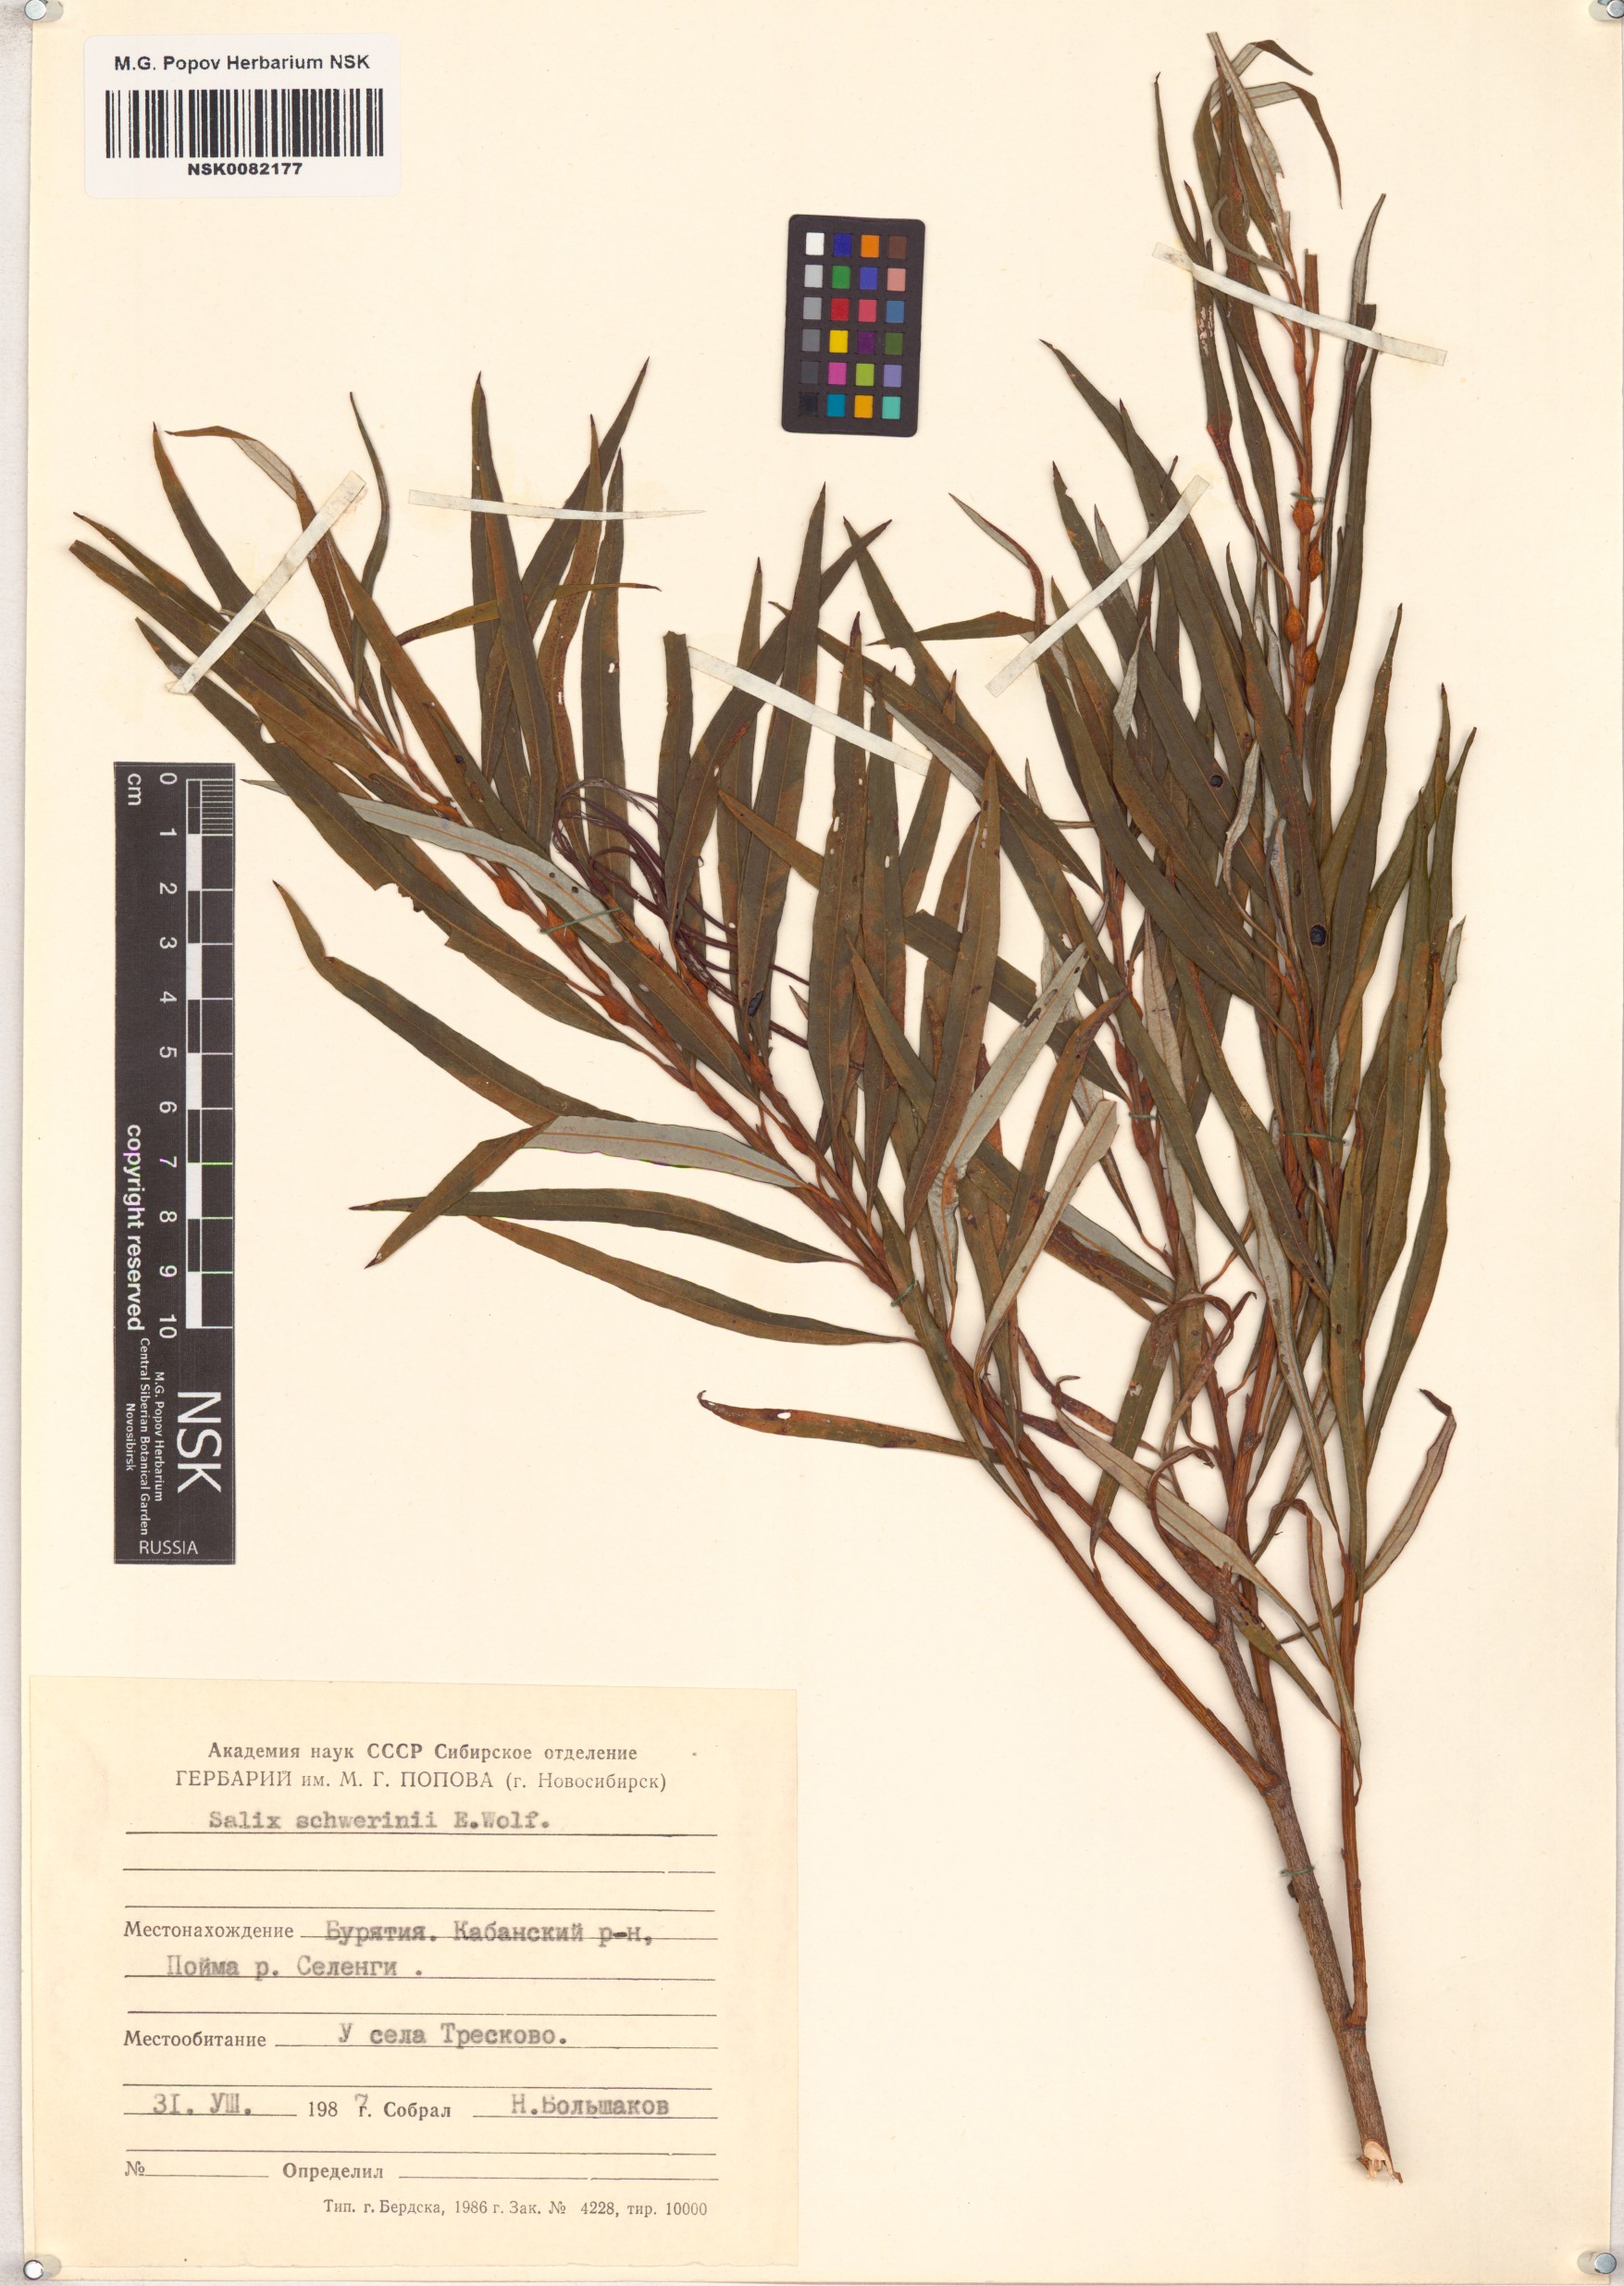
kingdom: Plantae
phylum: Tracheophyta
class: Magnoliopsida
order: Malpighiales
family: Salicaceae
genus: Salix
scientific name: Salix schwerinii
